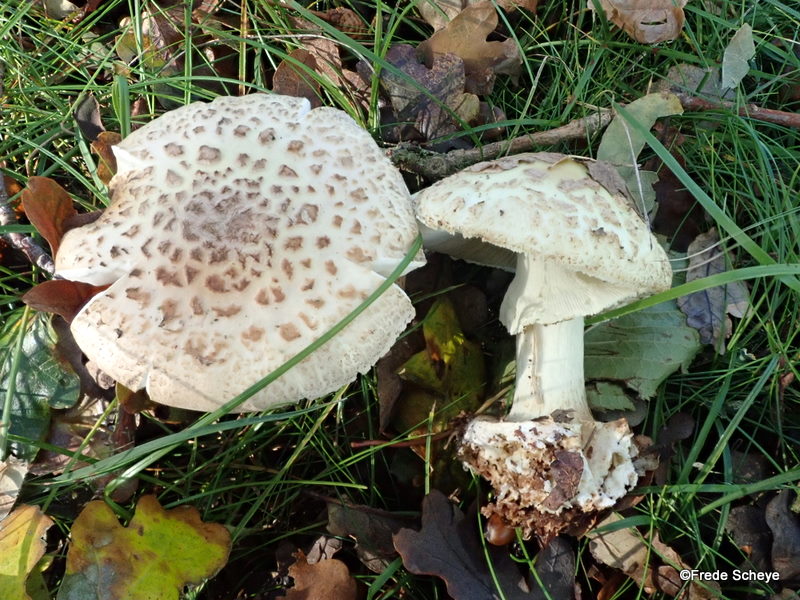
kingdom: Fungi
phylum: Basidiomycota
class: Agaricomycetes
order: Agaricales
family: Amanitaceae
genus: Amanita
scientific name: Amanita citrina
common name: kugleknoldet fluesvamp
